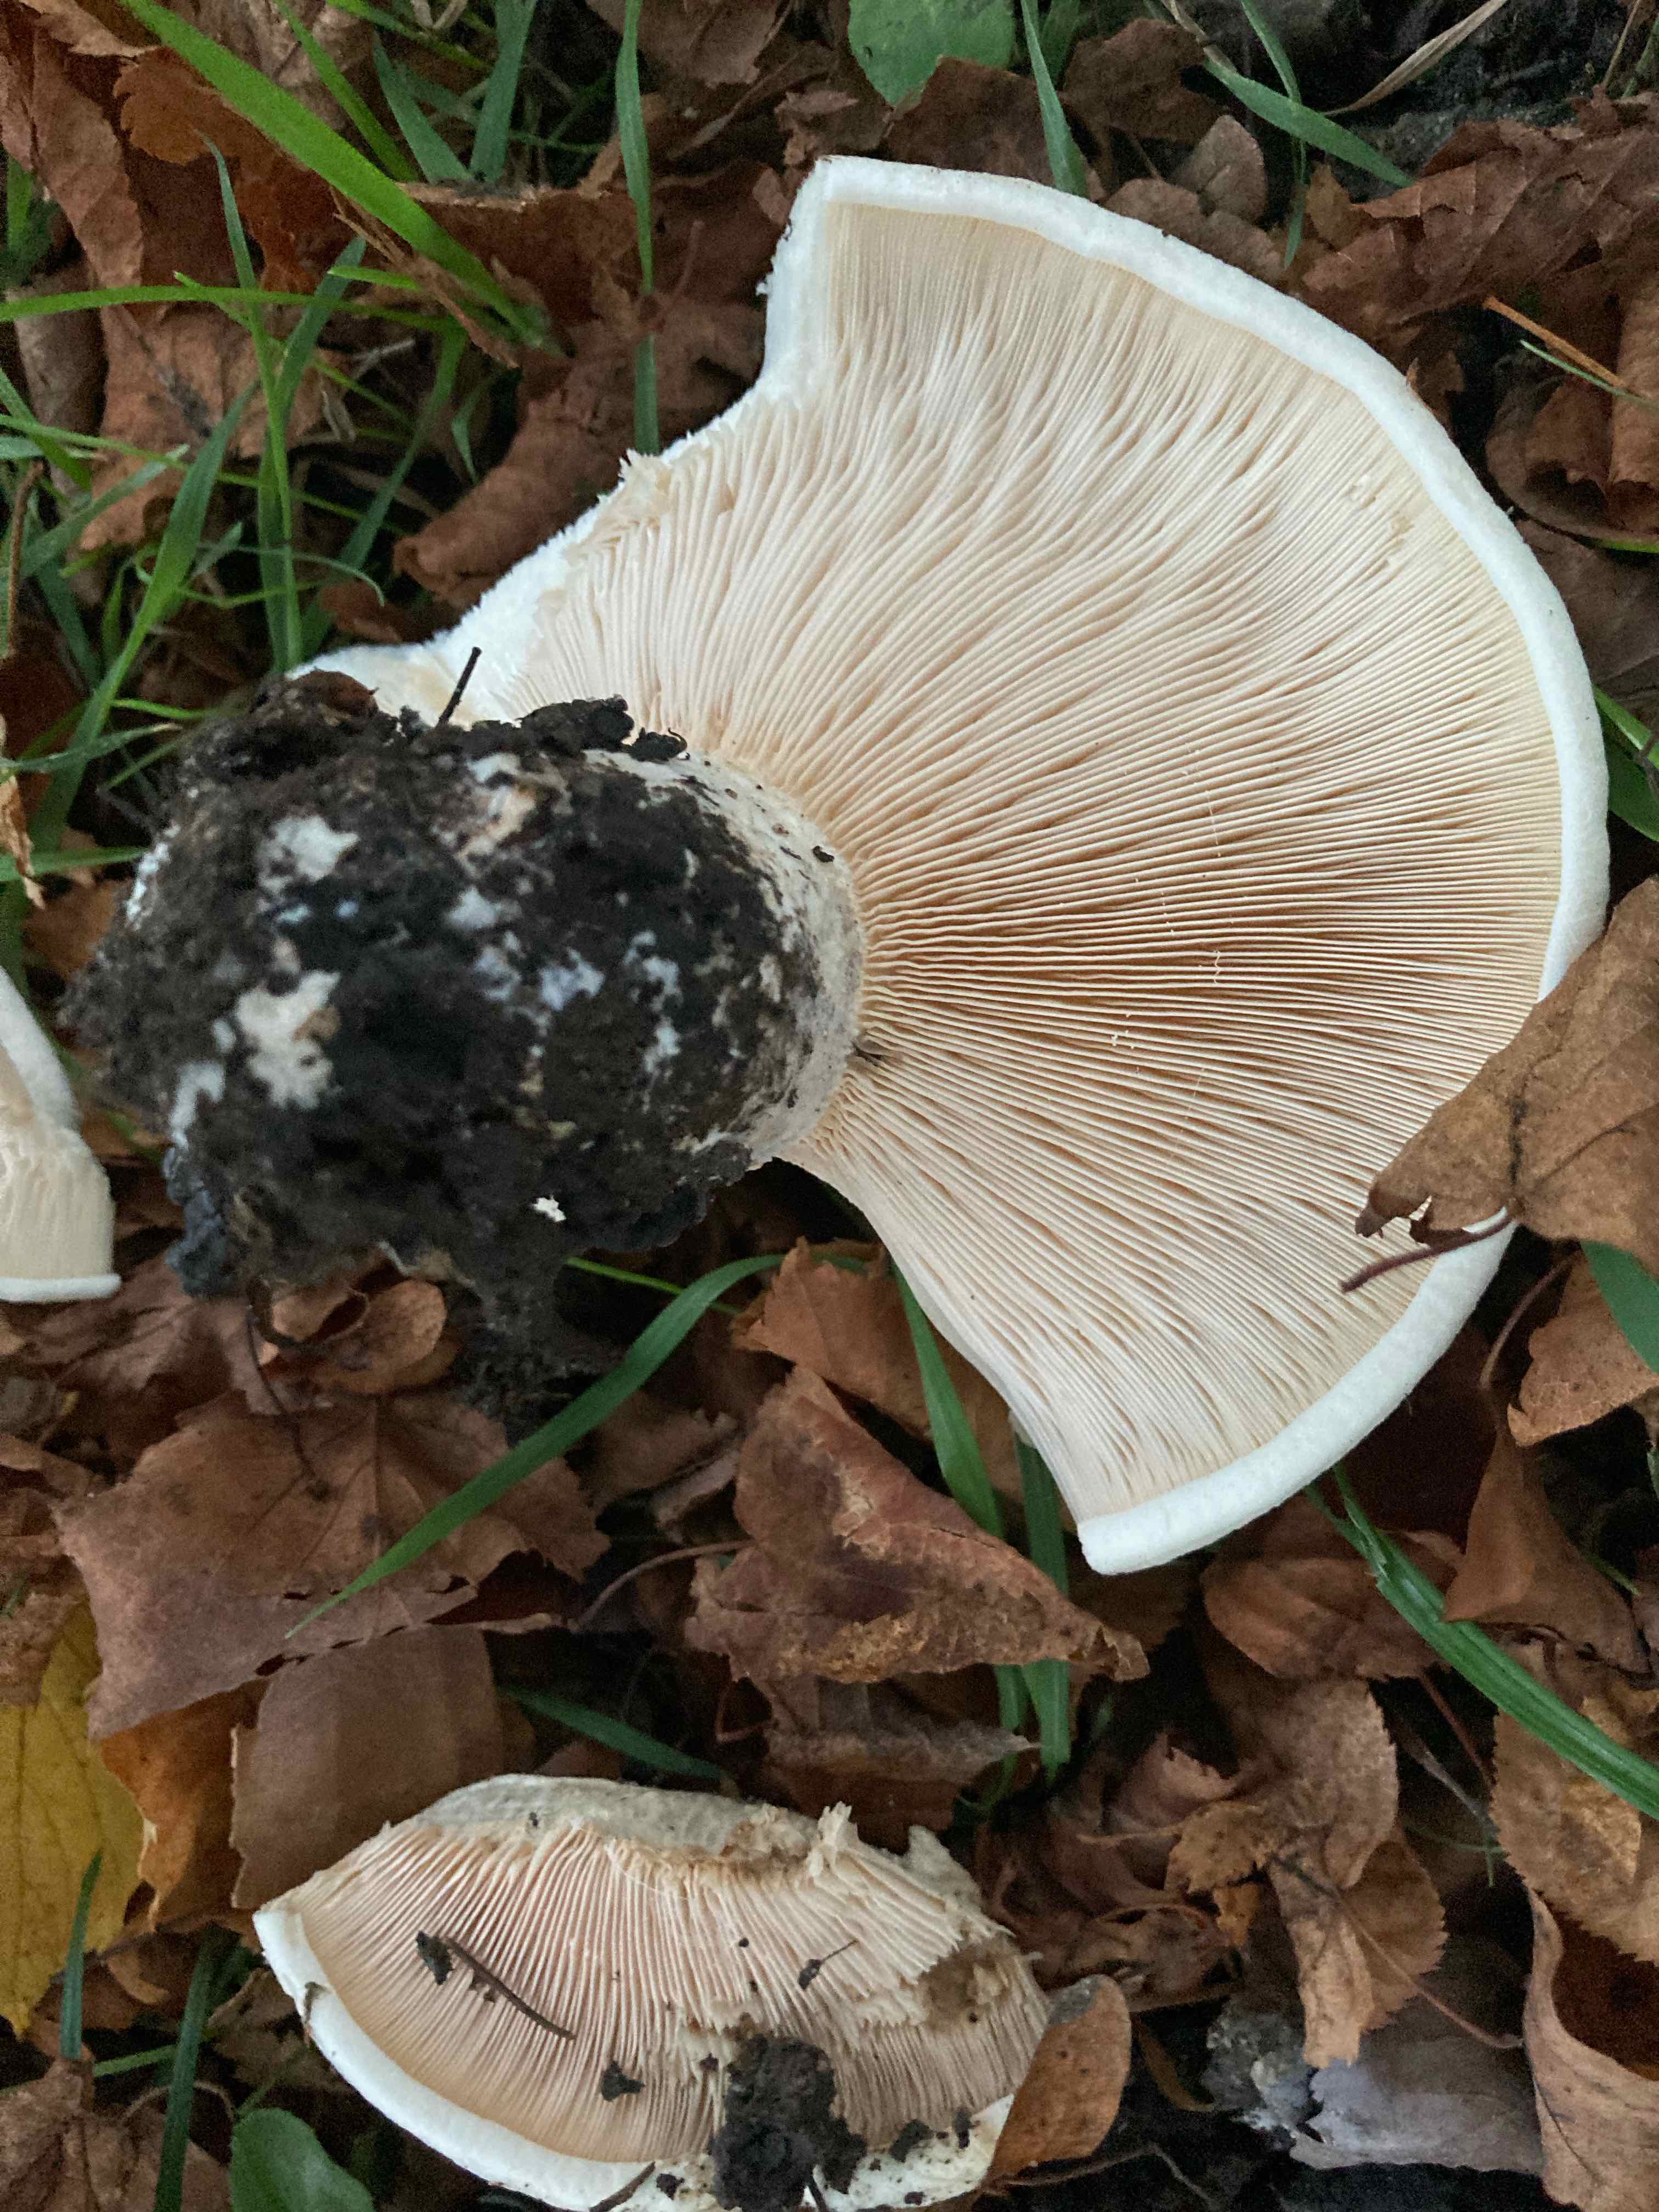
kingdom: Fungi
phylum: Basidiomycota
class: Agaricomycetes
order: Russulales
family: Russulaceae
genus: Lactarius
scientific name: Lactarius controversus
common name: rosabladet mælkehat
